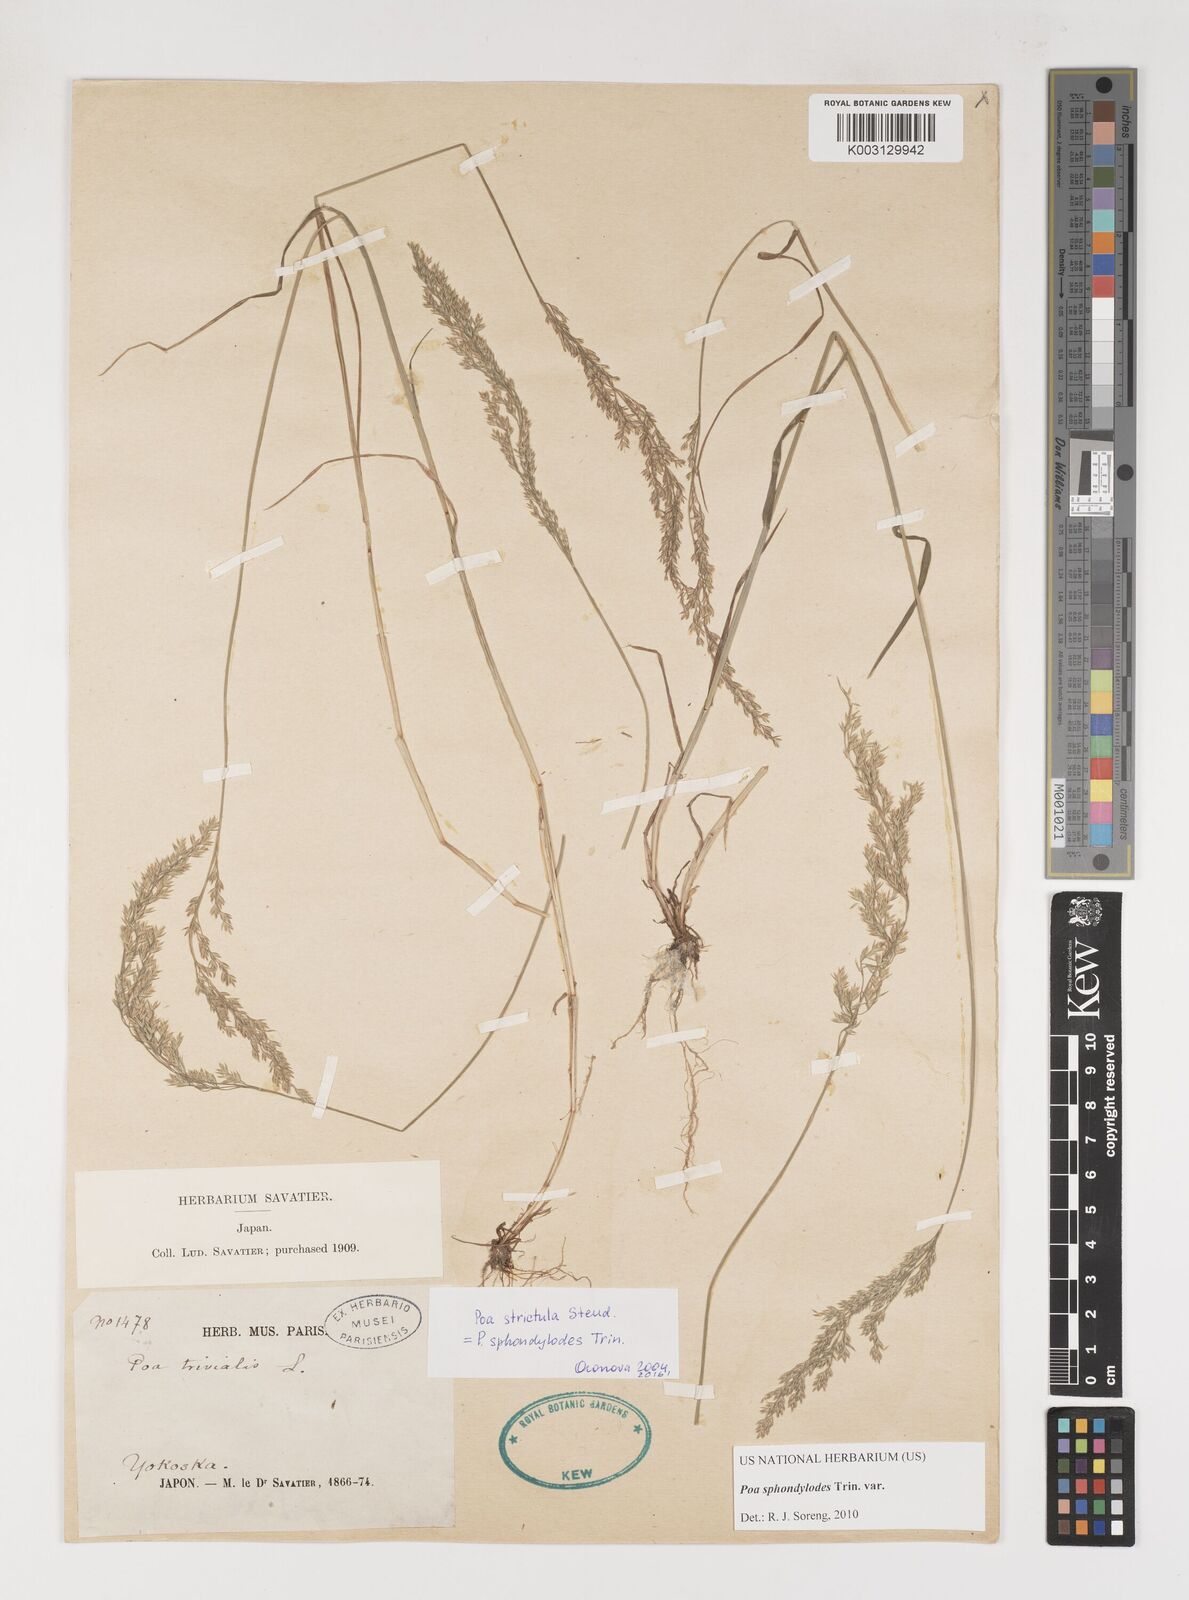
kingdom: Plantae
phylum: Tracheophyta
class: Liliopsida
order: Poales
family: Poaceae
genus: Poa
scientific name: Poa sphondylodes
